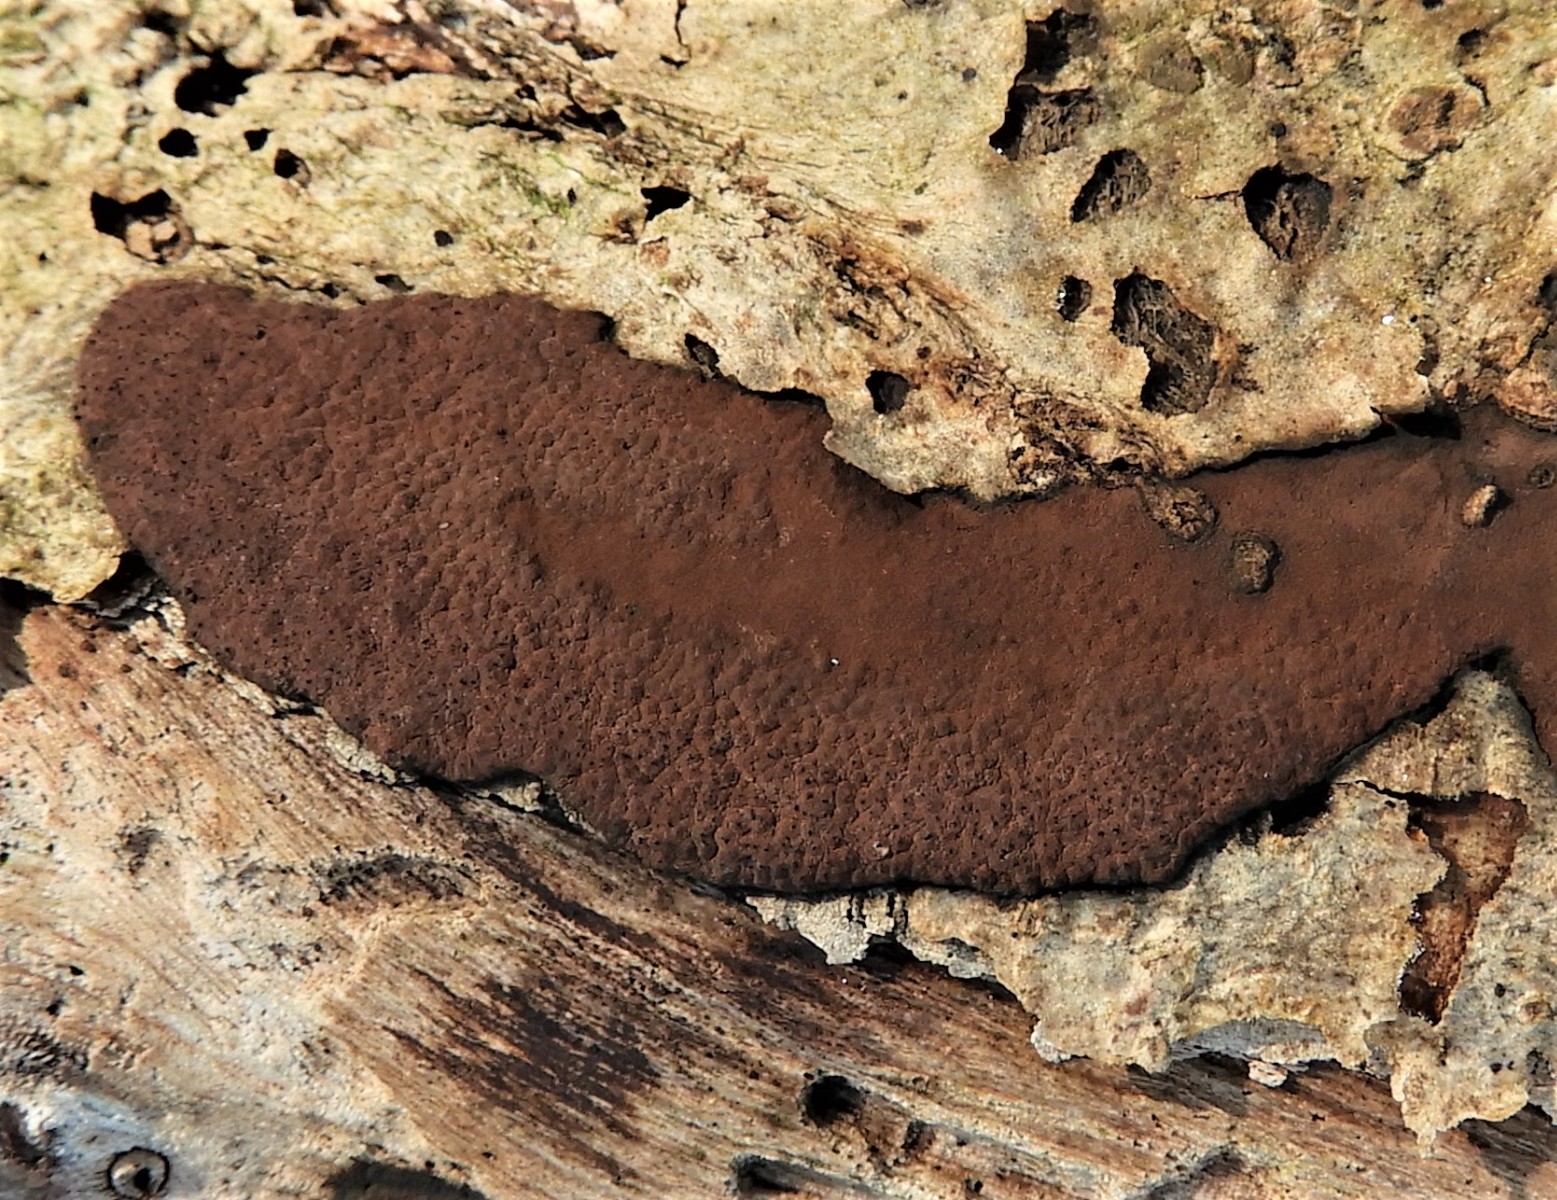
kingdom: Fungi
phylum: Ascomycota
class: Sordariomycetes
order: Xylariales
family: Hypoxylaceae
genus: Hypoxylon
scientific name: Hypoxylon petriniae
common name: nedsænket kulbær
